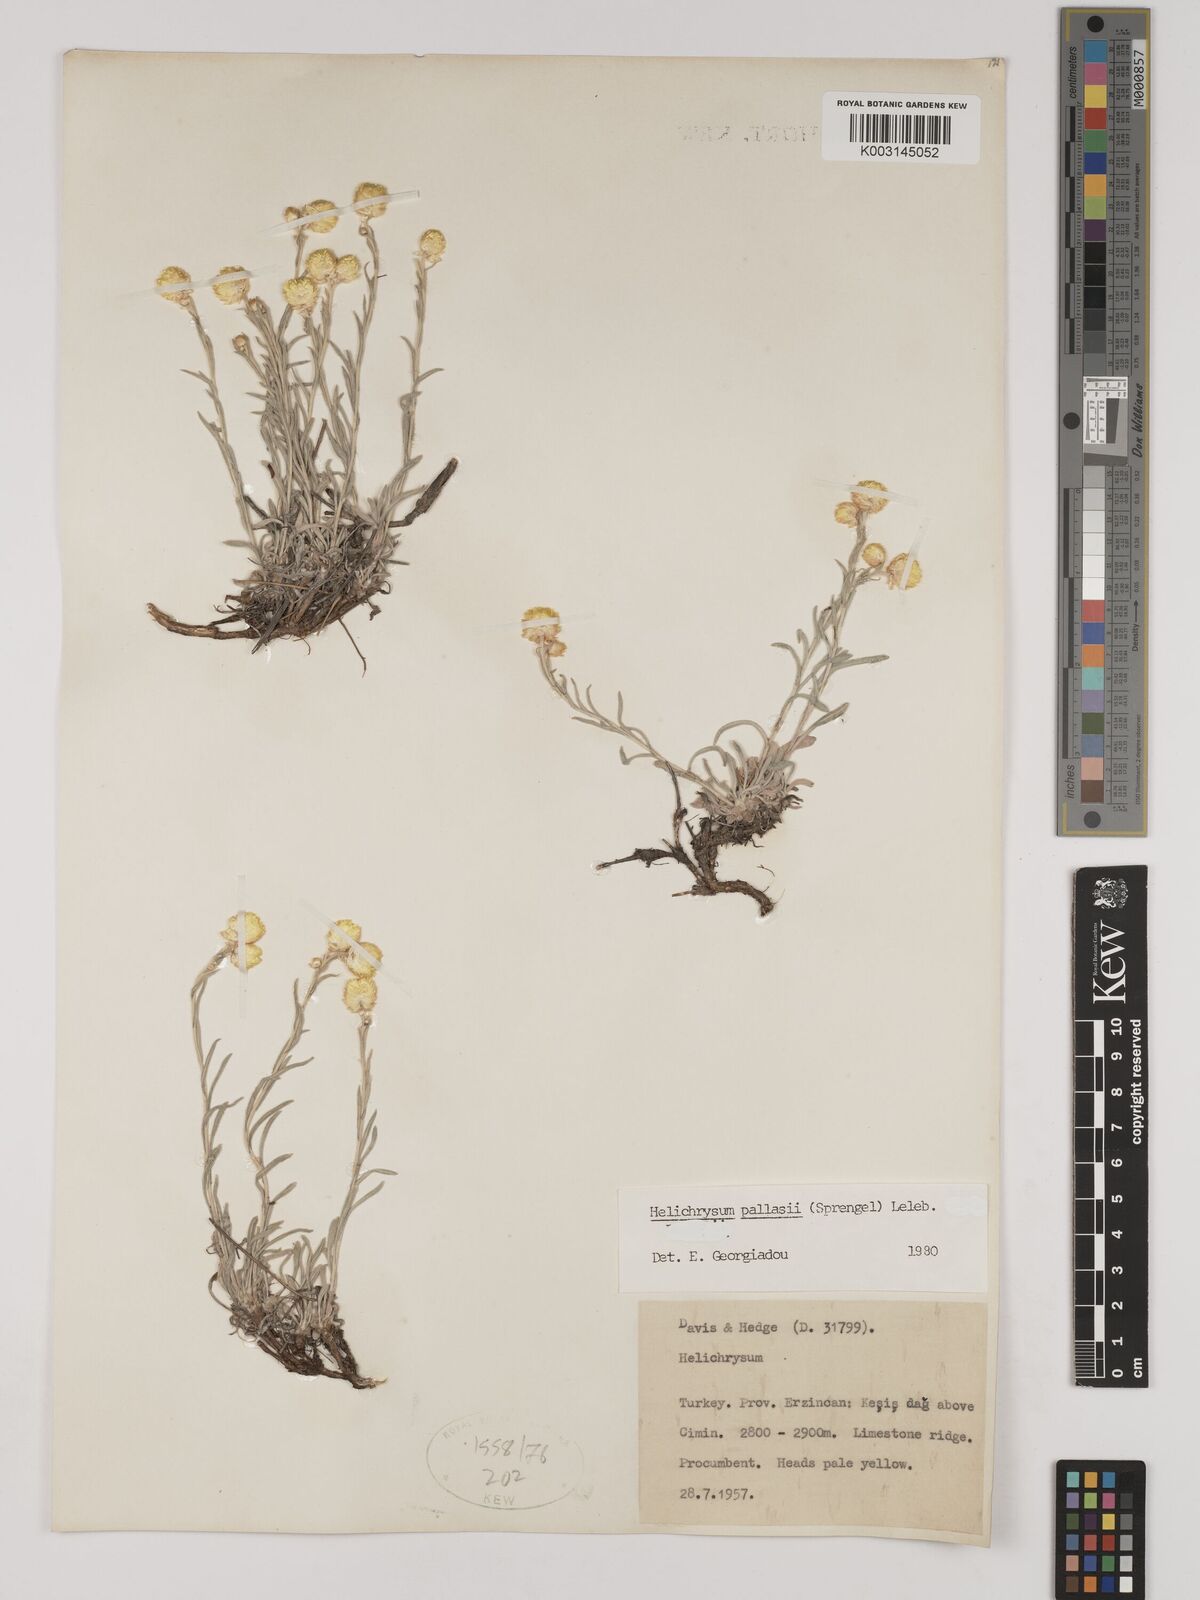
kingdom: Plantae
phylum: Tracheophyta
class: Magnoliopsida
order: Asterales
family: Asteraceae
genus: Helichrysum
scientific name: Helichrysum pallasii
